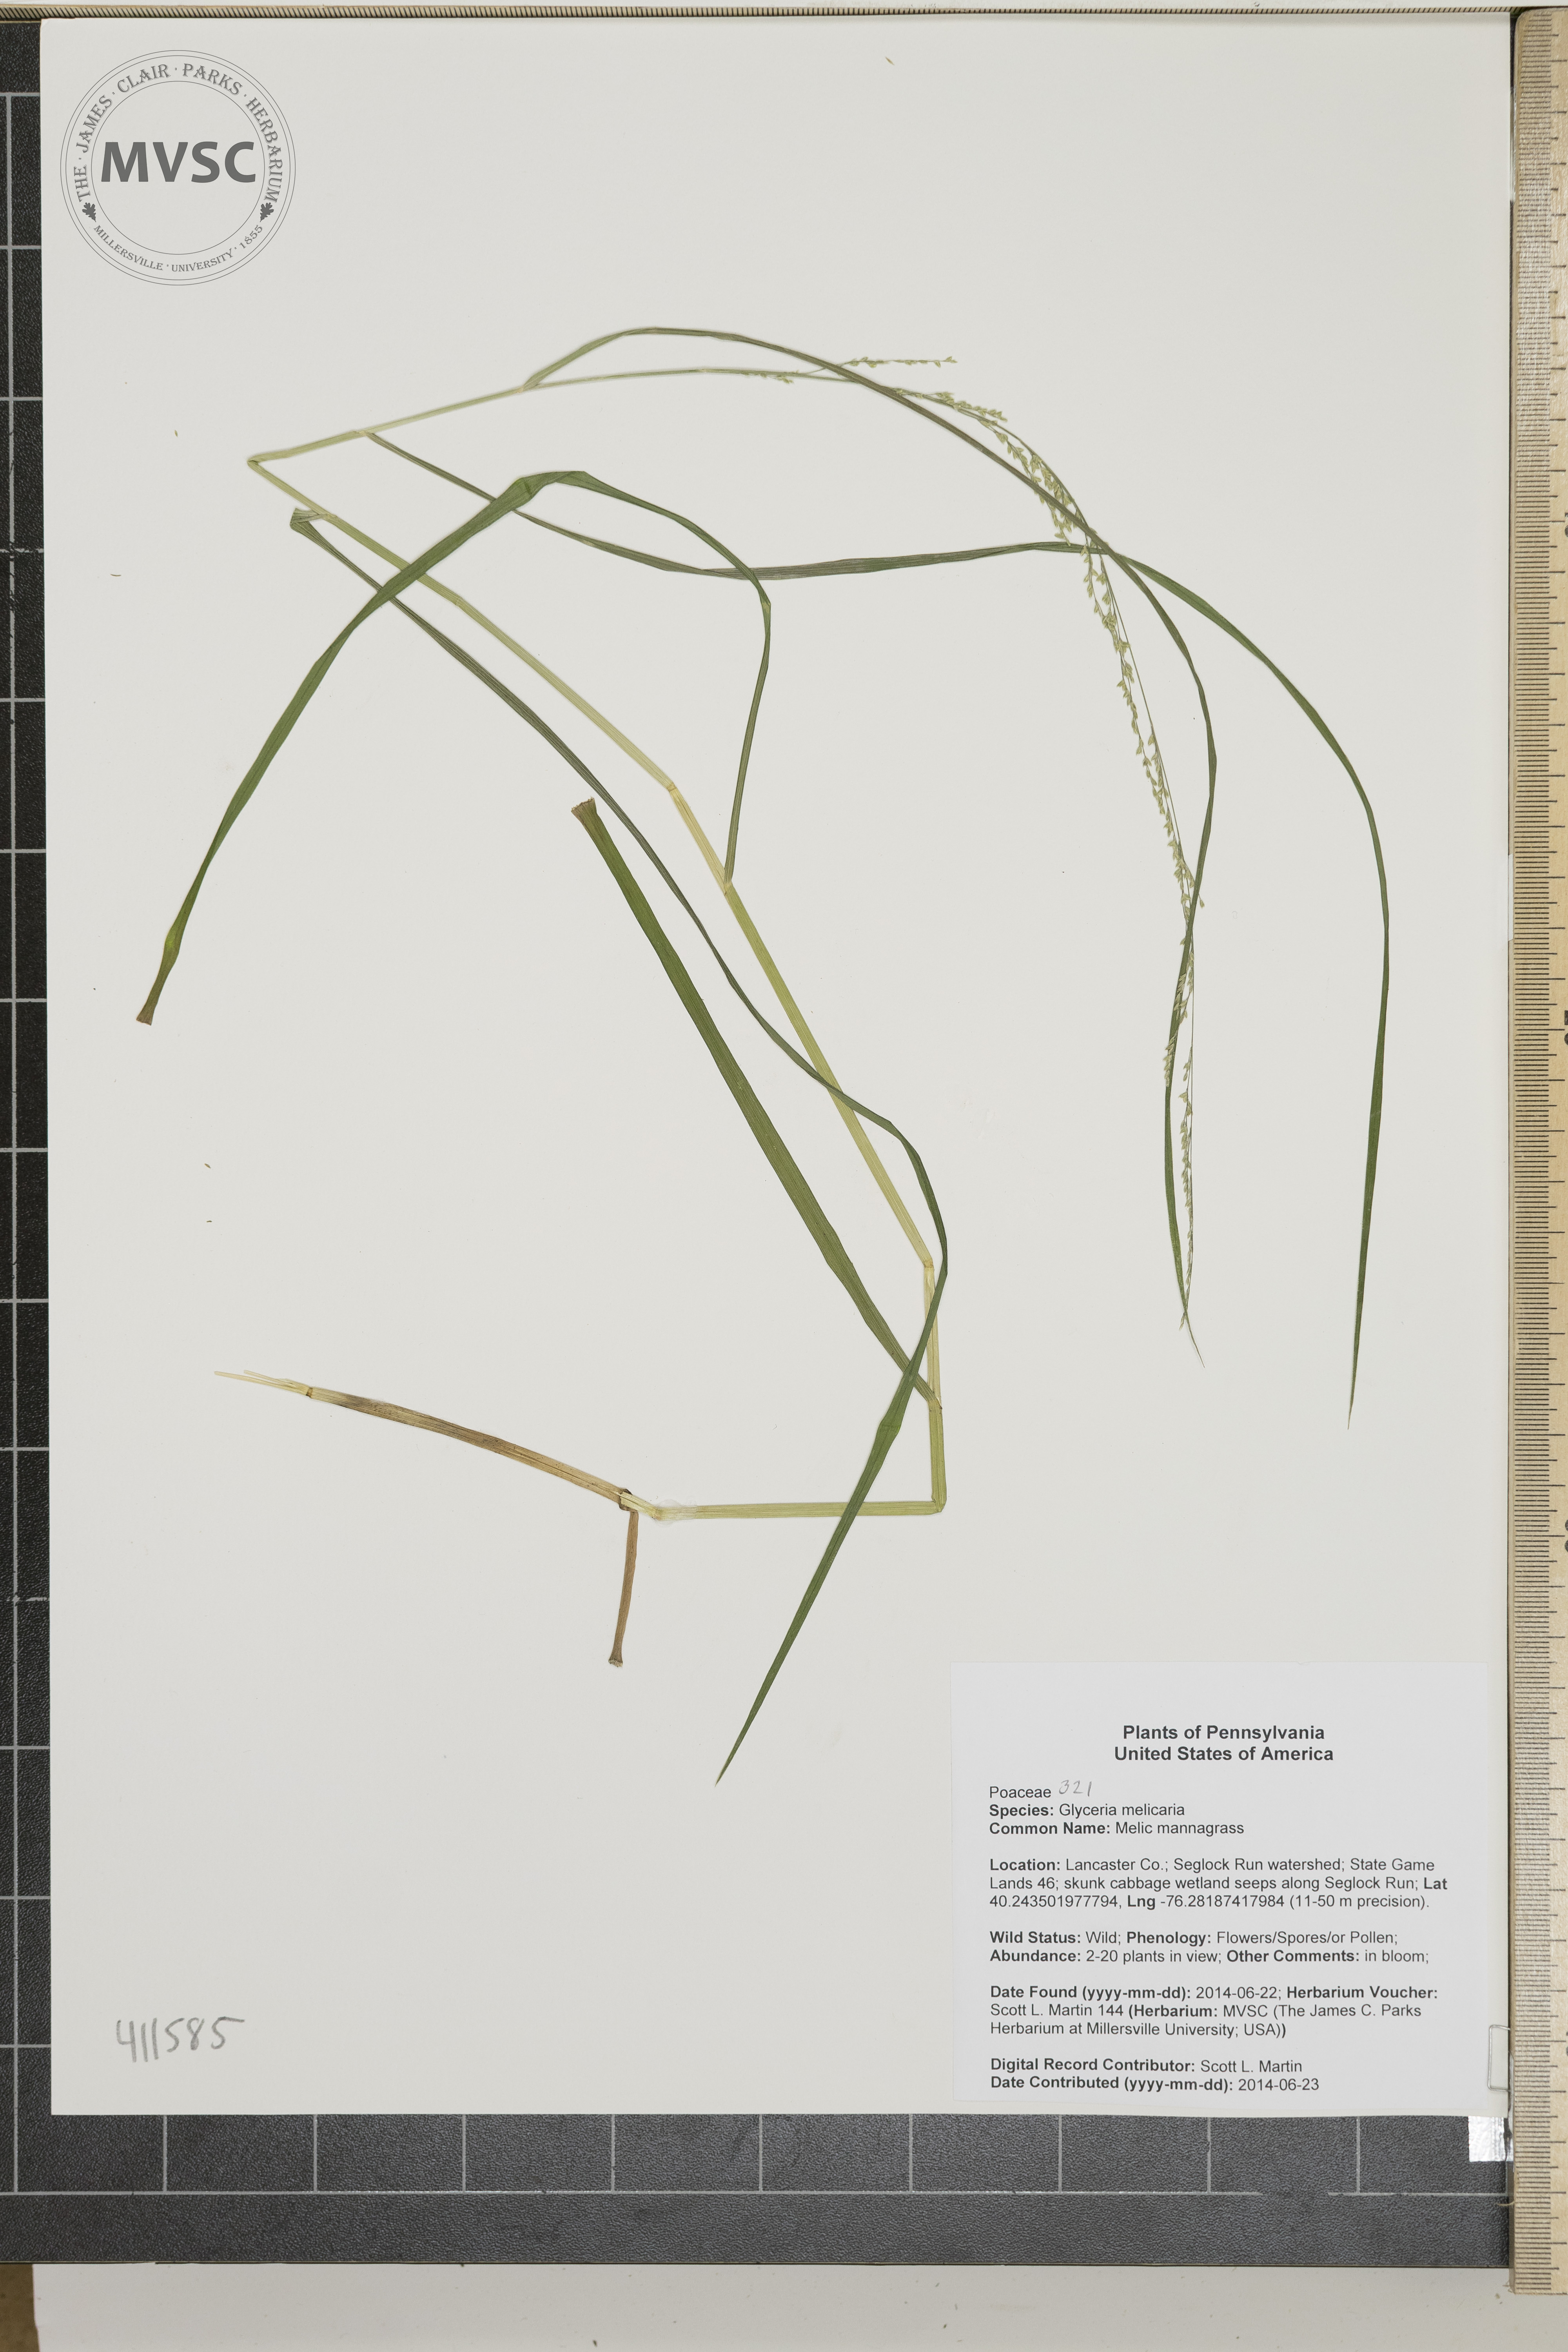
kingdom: Plantae
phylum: Tracheophyta
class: Liliopsida
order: Poales
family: Poaceae
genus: Glyceria
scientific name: Glyceria melicaria
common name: Melic mannagrass
